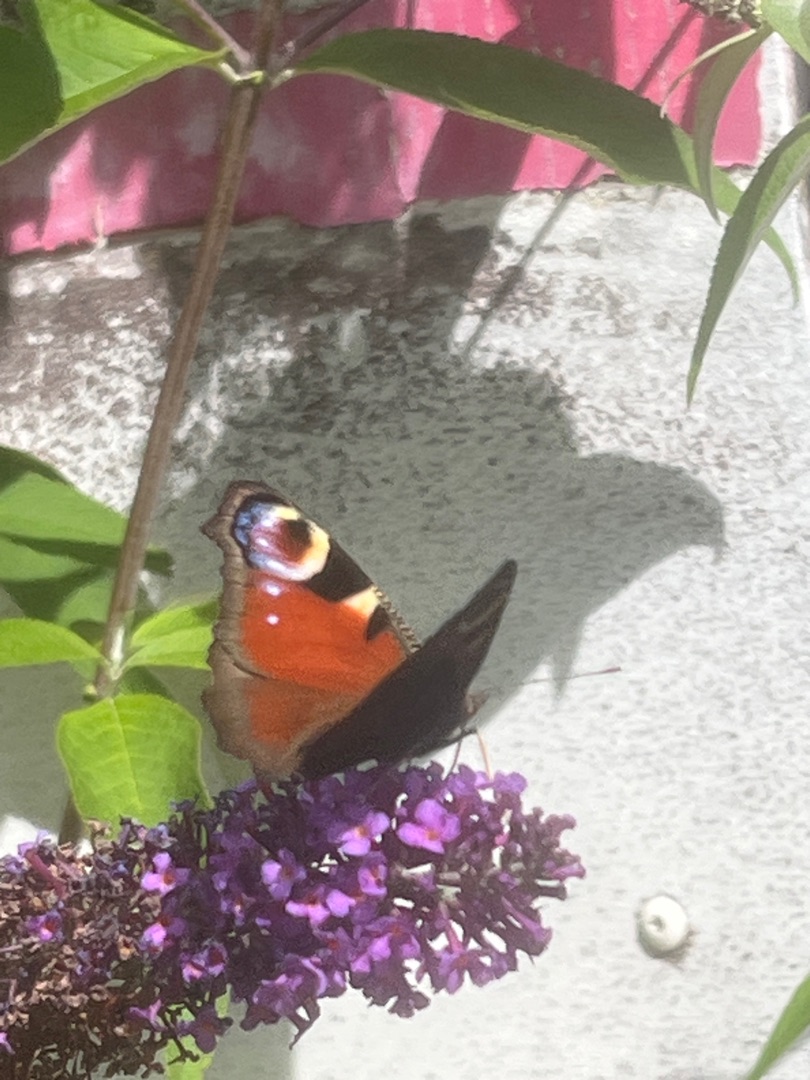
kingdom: Animalia
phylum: Arthropoda
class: Insecta
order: Lepidoptera
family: Nymphalidae
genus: Aglais
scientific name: Aglais io
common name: Dagpåfugleøje
